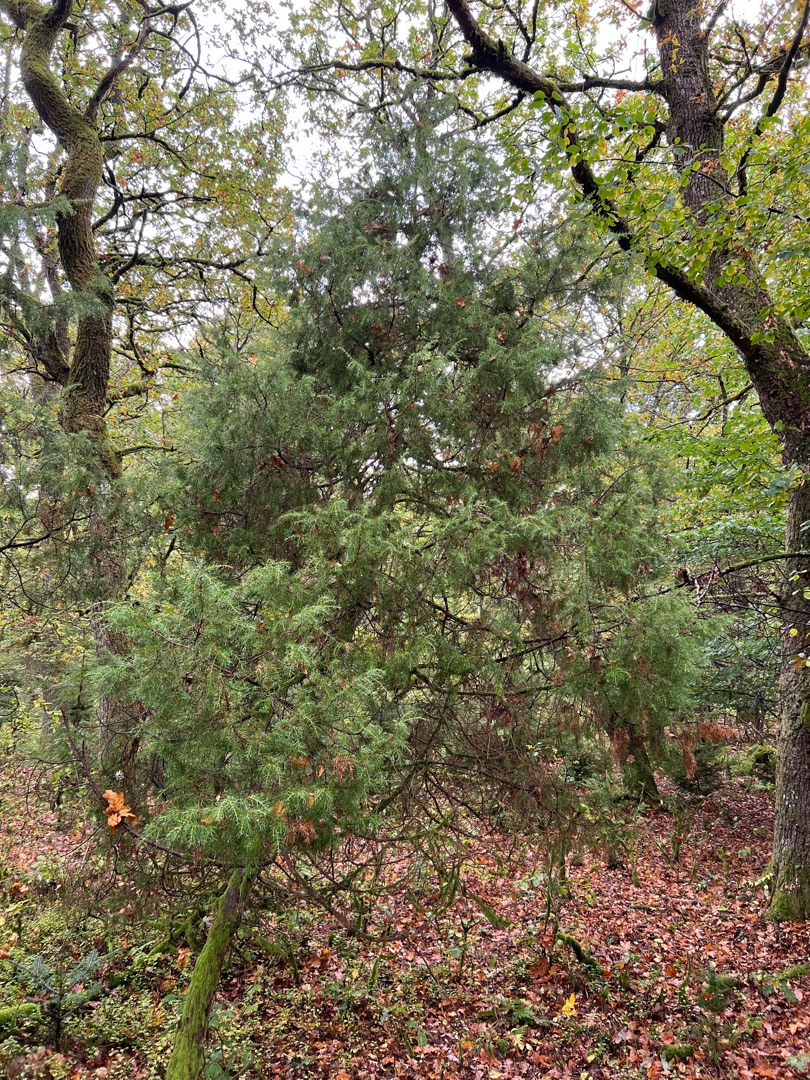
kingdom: Plantae
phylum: Tracheophyta
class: Pinopsida
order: Pinales
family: Cupressaceae
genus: Juniperus
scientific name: Juniperus communis
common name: Almindelig ene
